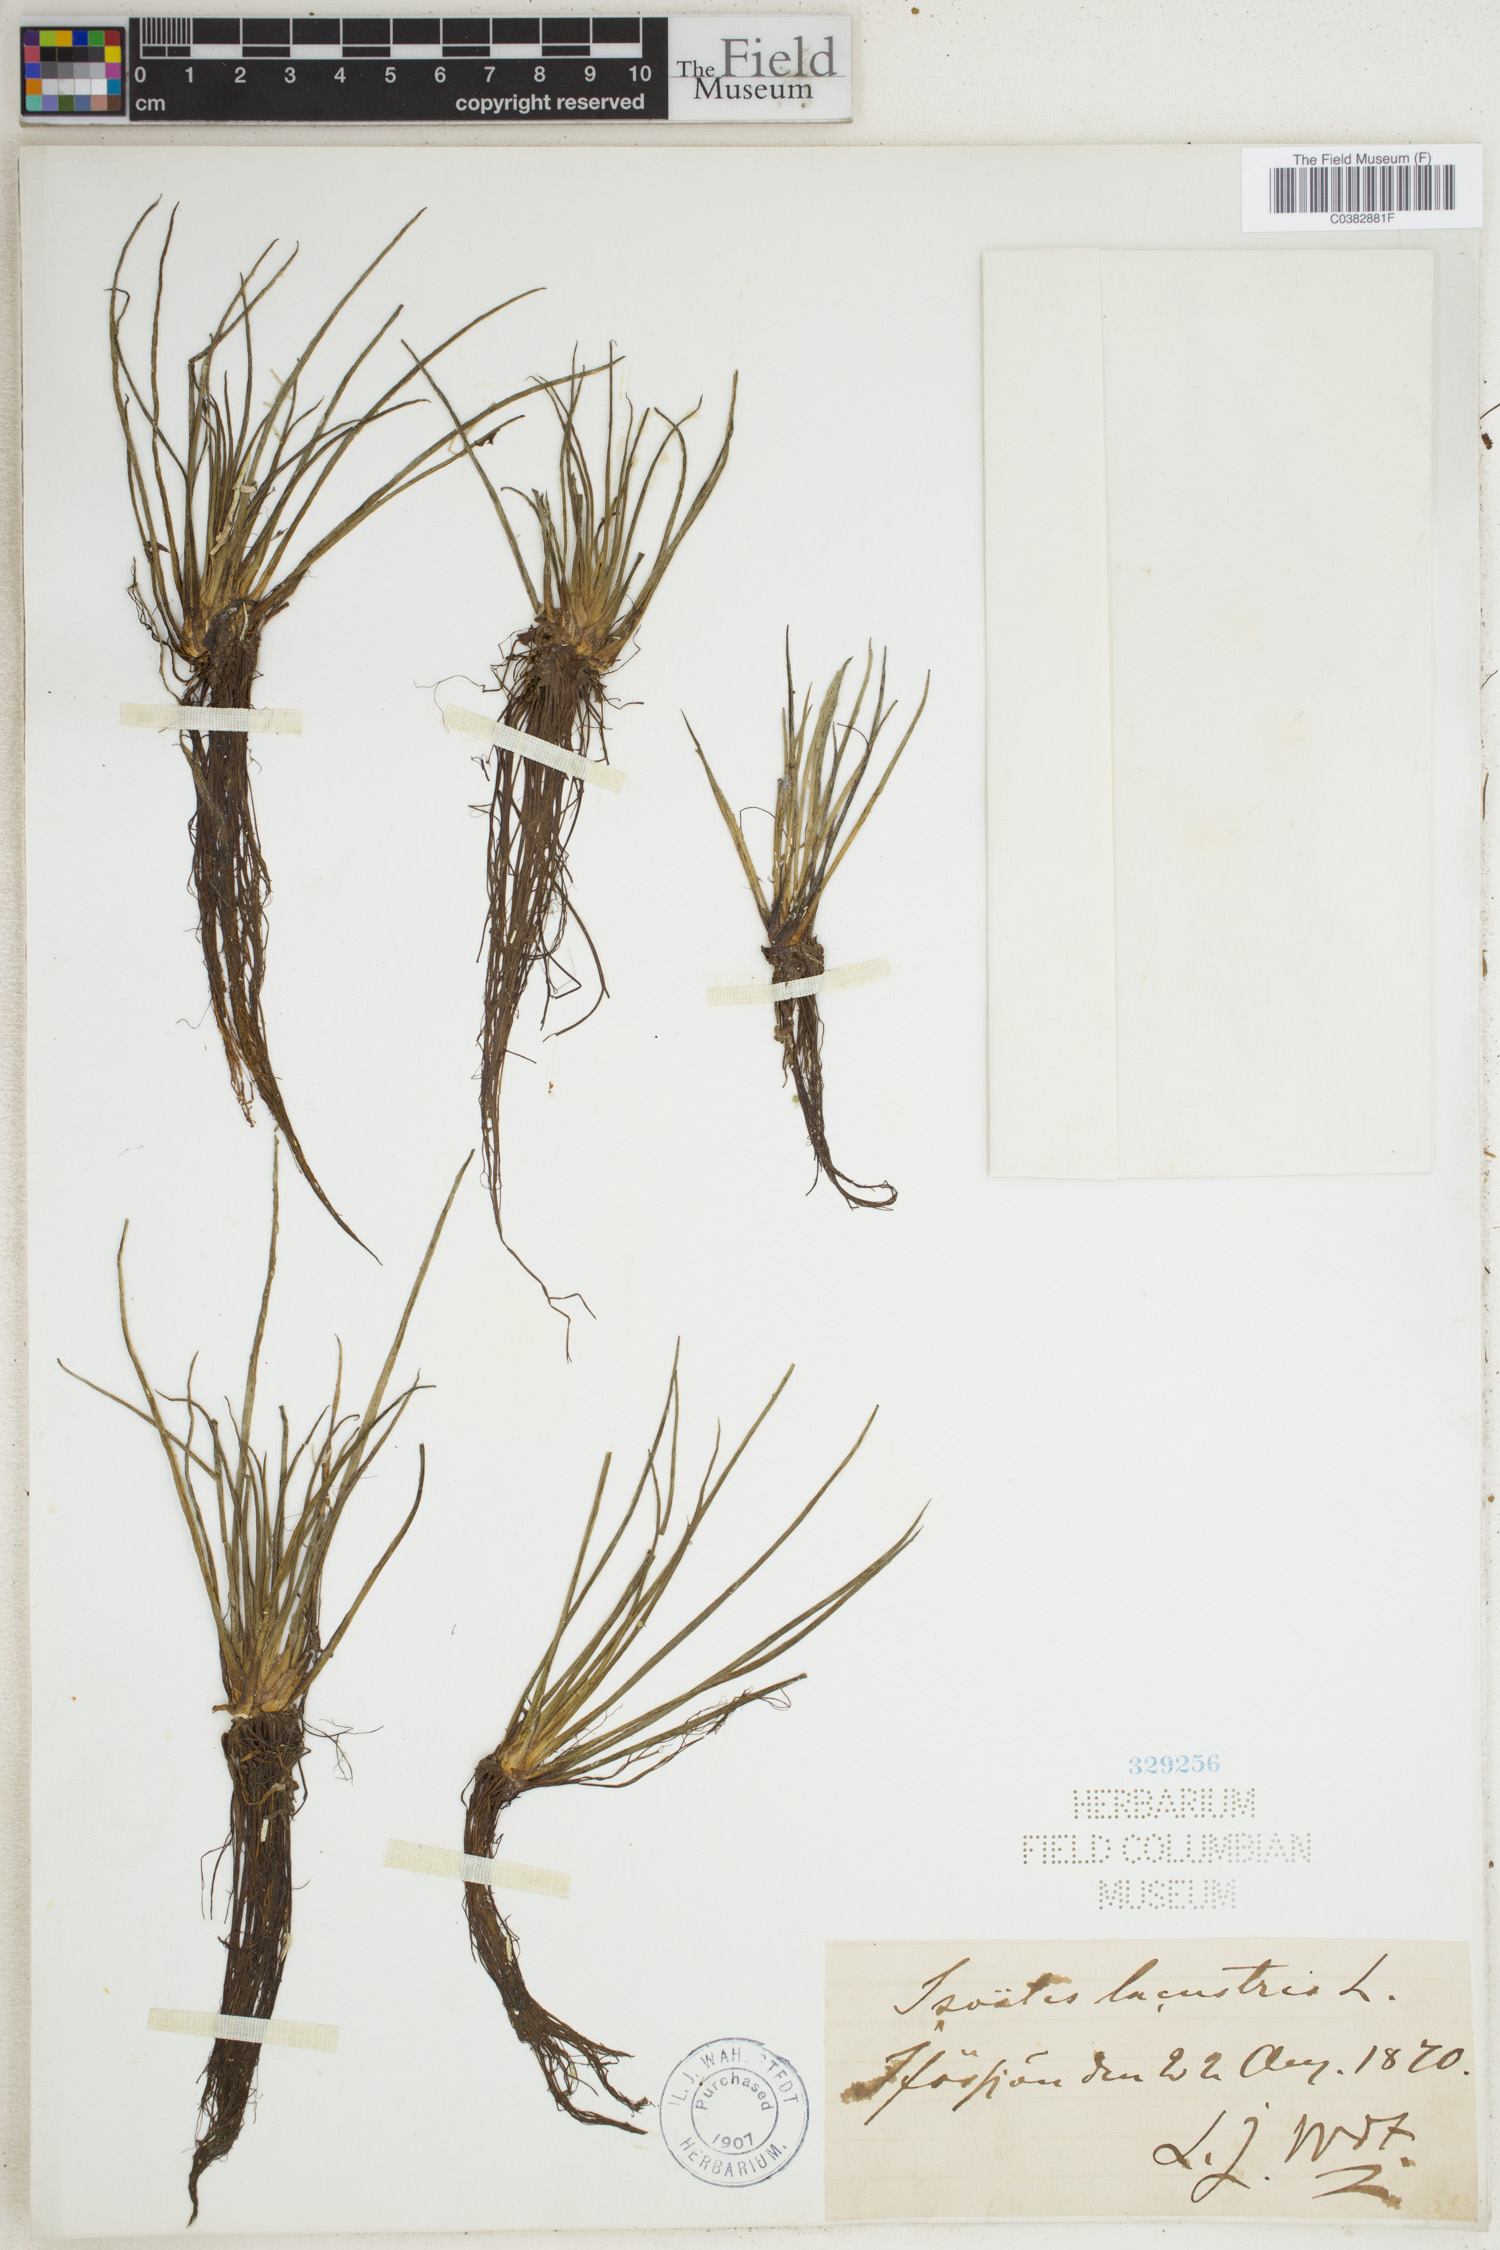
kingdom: Plantae
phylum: Tracheophyta
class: Lycopodiopsida
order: Isoetales
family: Isoetaceae
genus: Isoetes
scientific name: Isoetes lacustris
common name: Common quillwort
